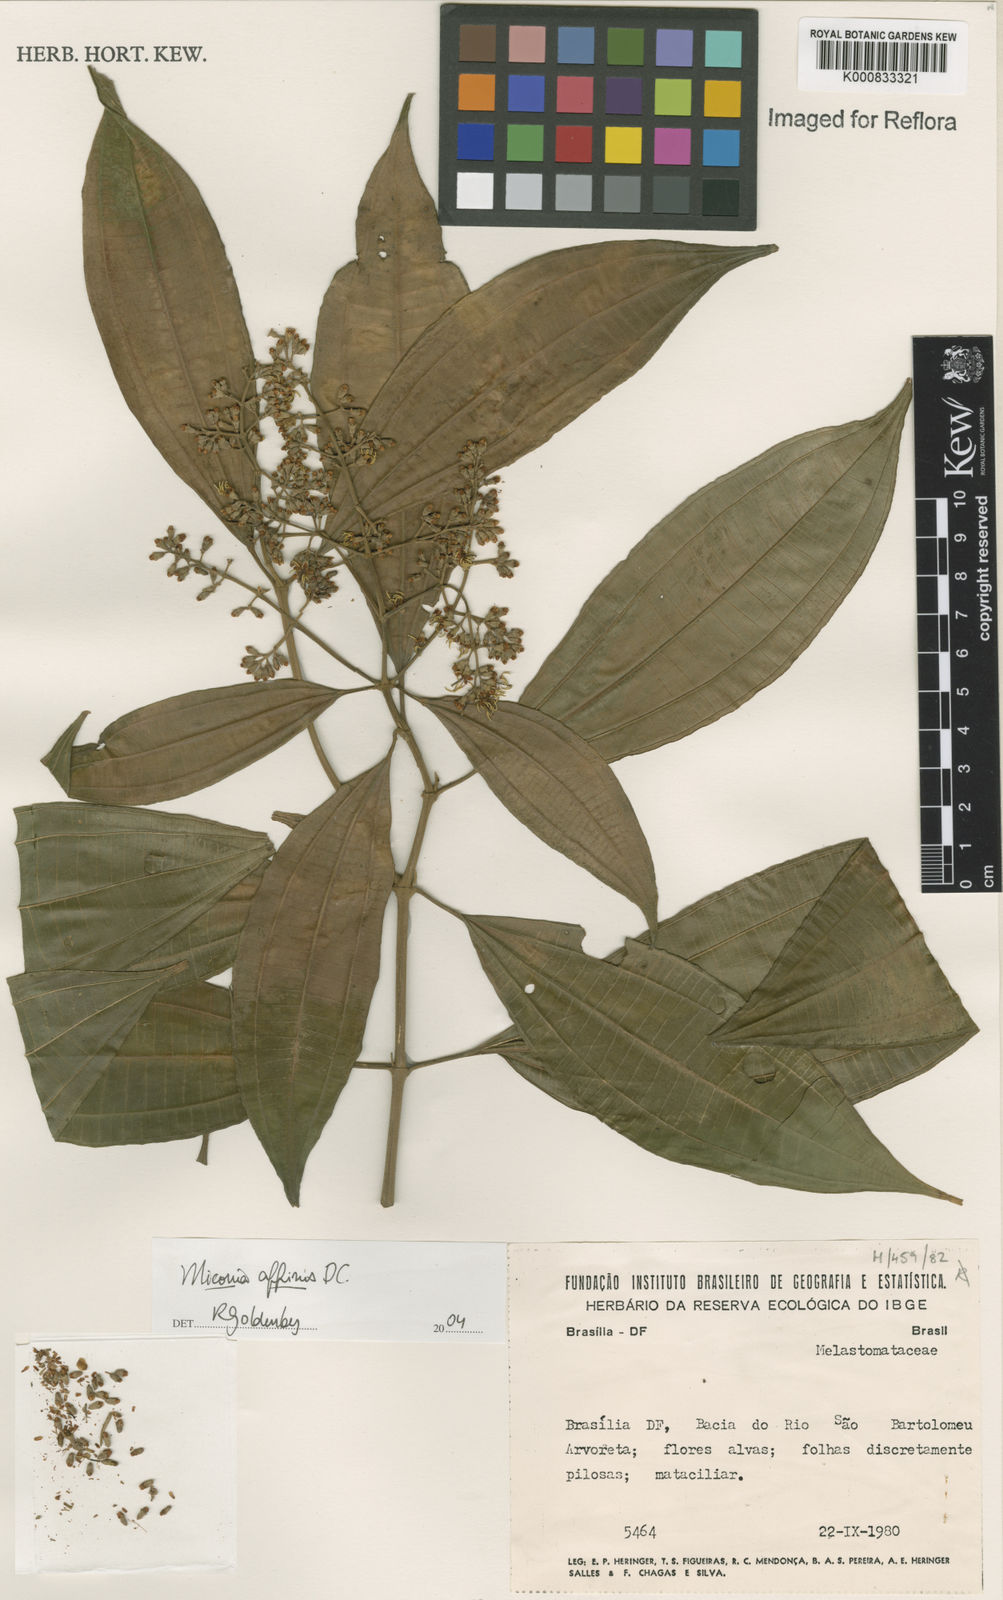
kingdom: Plantae
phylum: Tracheophyta
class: Magnoliopsida
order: Myrtales
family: Melastomataceae
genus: Miconia
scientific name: Miconia affinis
